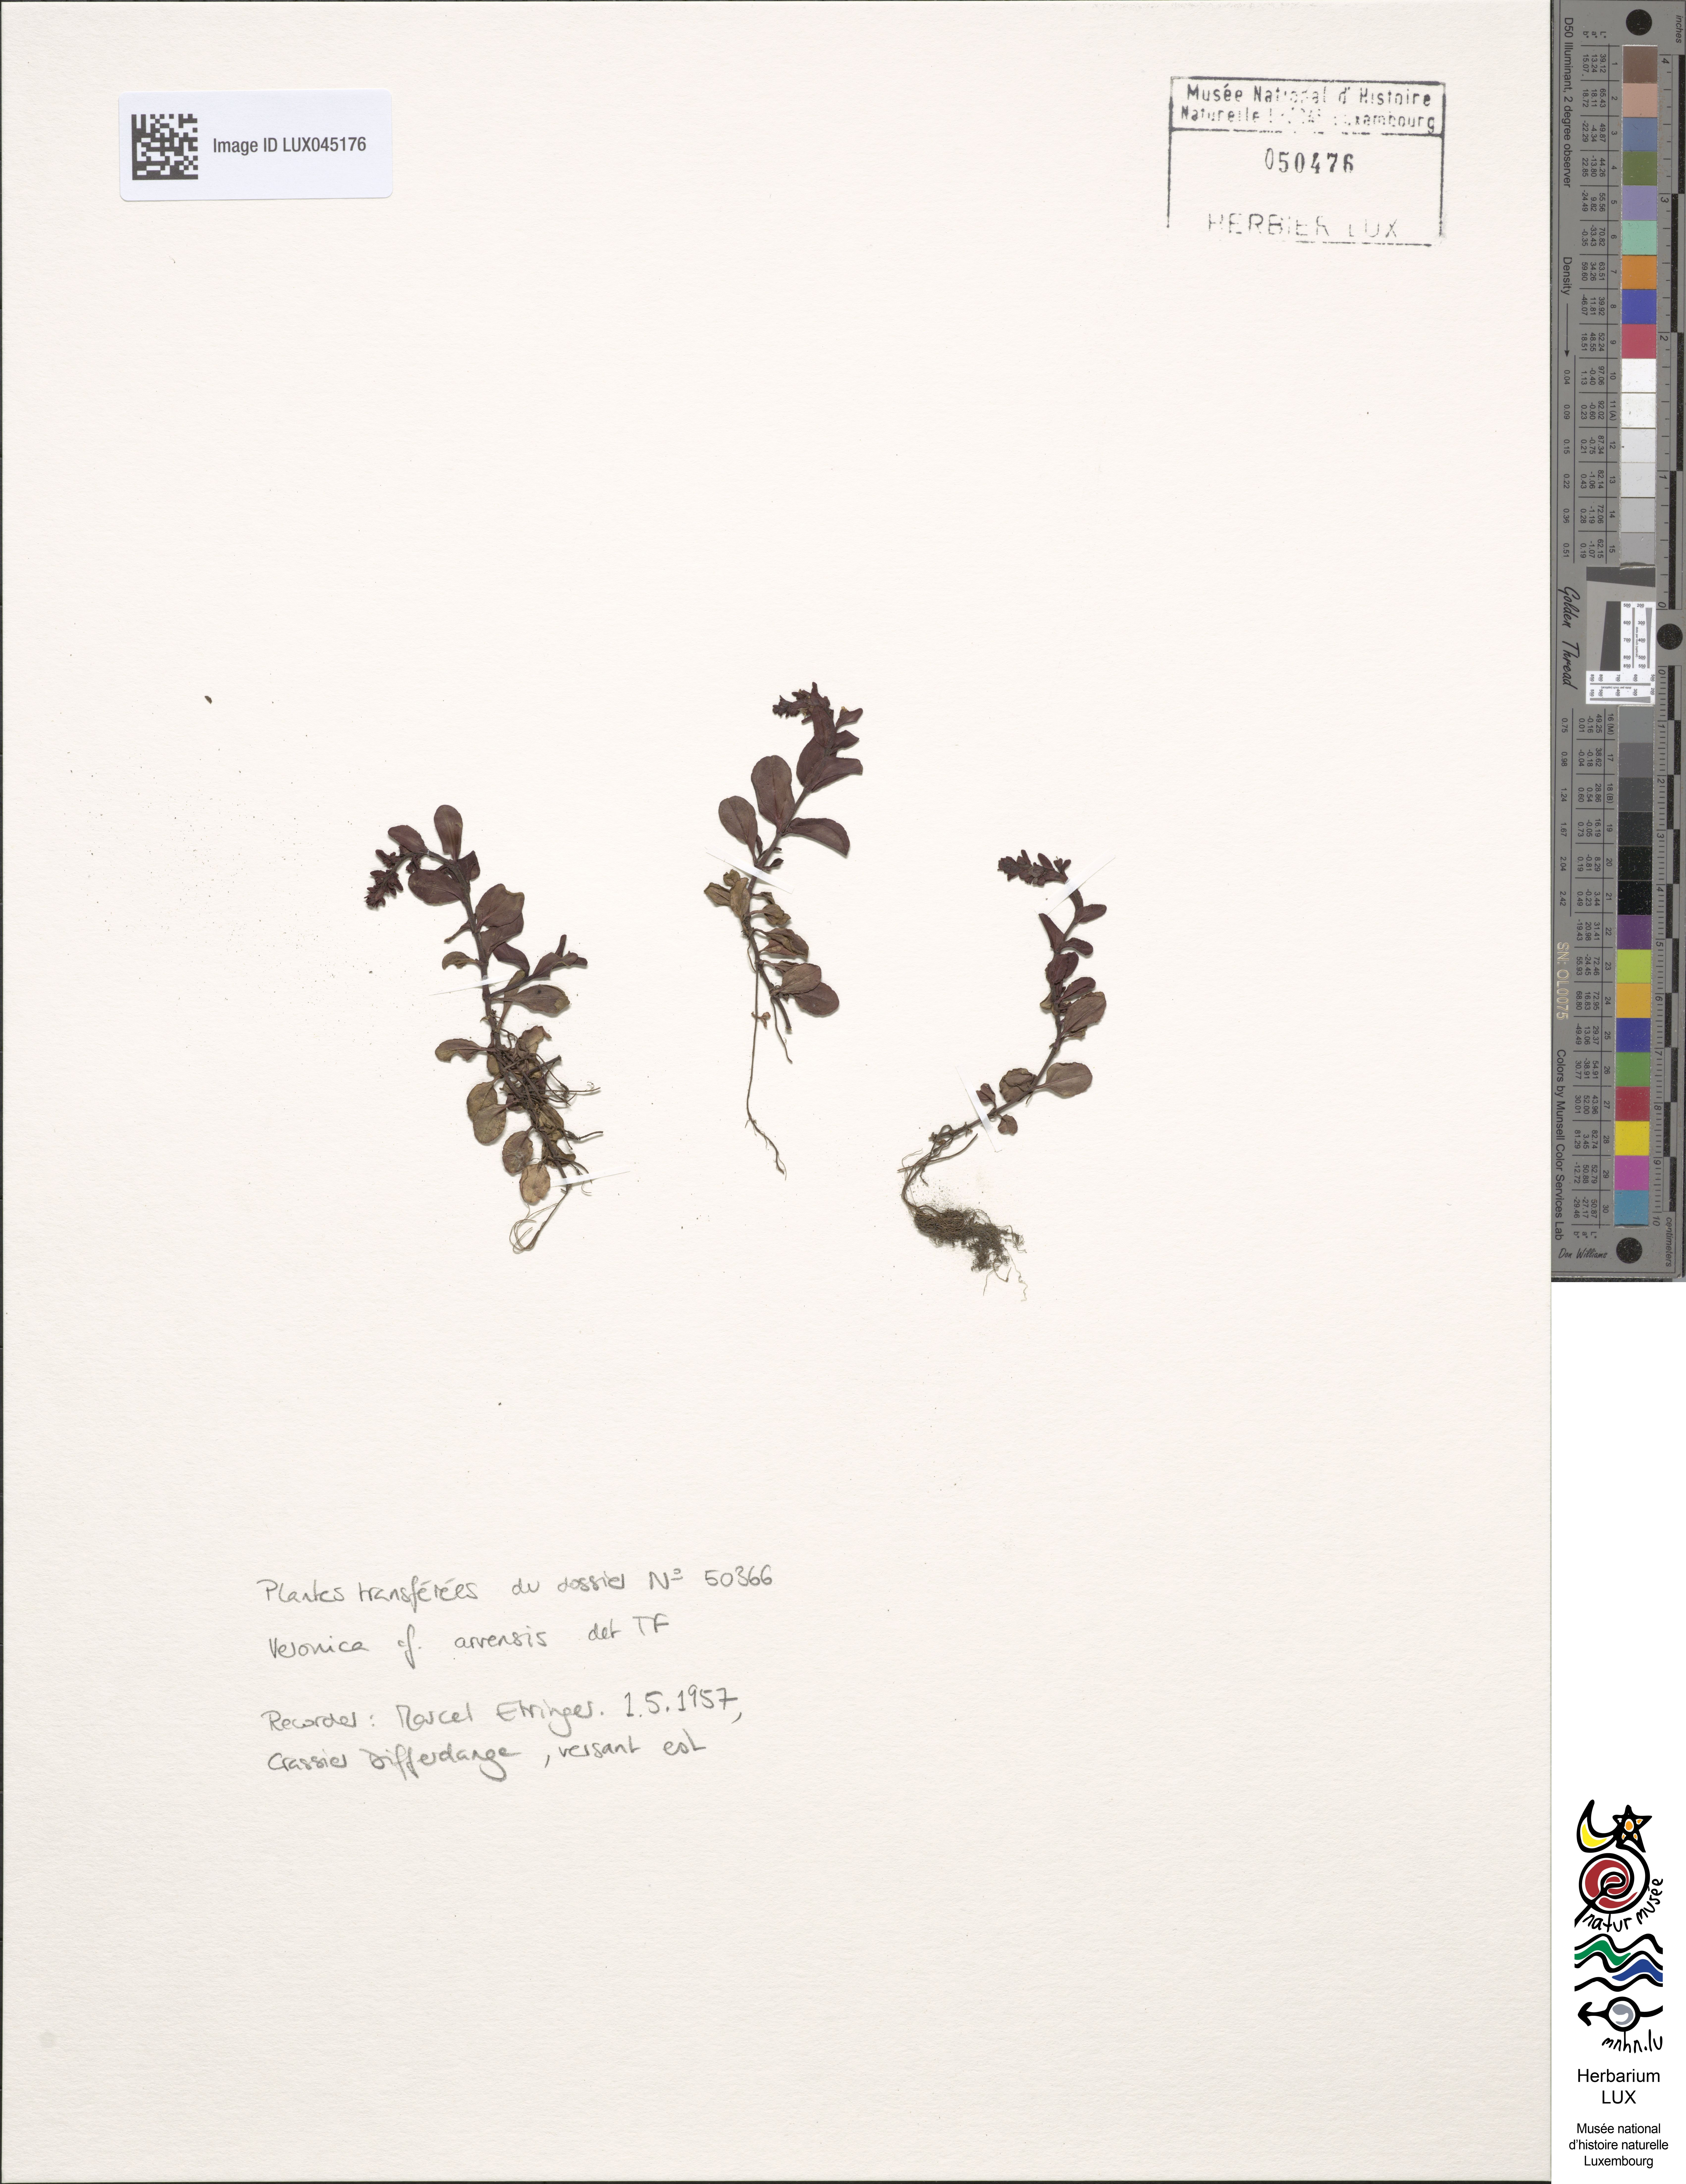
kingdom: Plantae
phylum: Tracheophyta
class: Magnoliopsida
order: Lamiales
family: Plantaginaceae
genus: Veronica
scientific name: Veronica arvensis
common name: Corn speedwell
